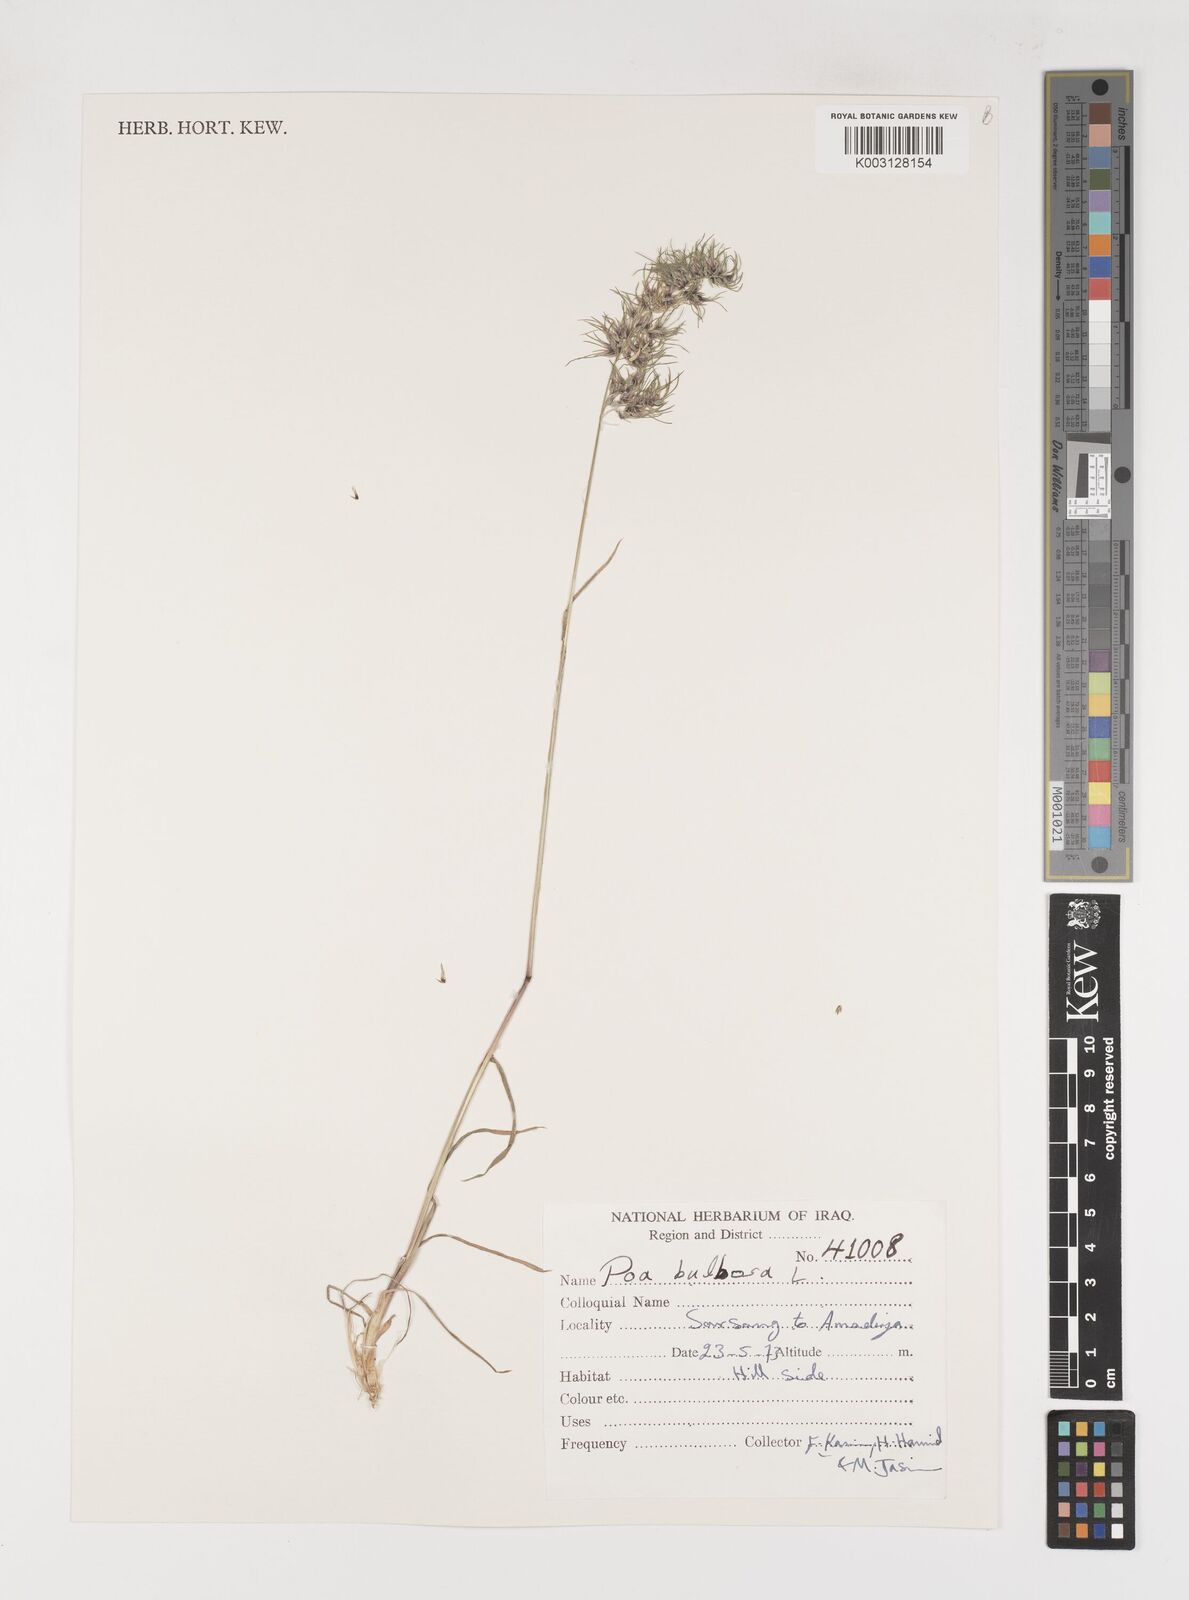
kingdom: Plantae
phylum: Tracheophyta
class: Liliopsida
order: Poales
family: Poaceae
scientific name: Poaceae
